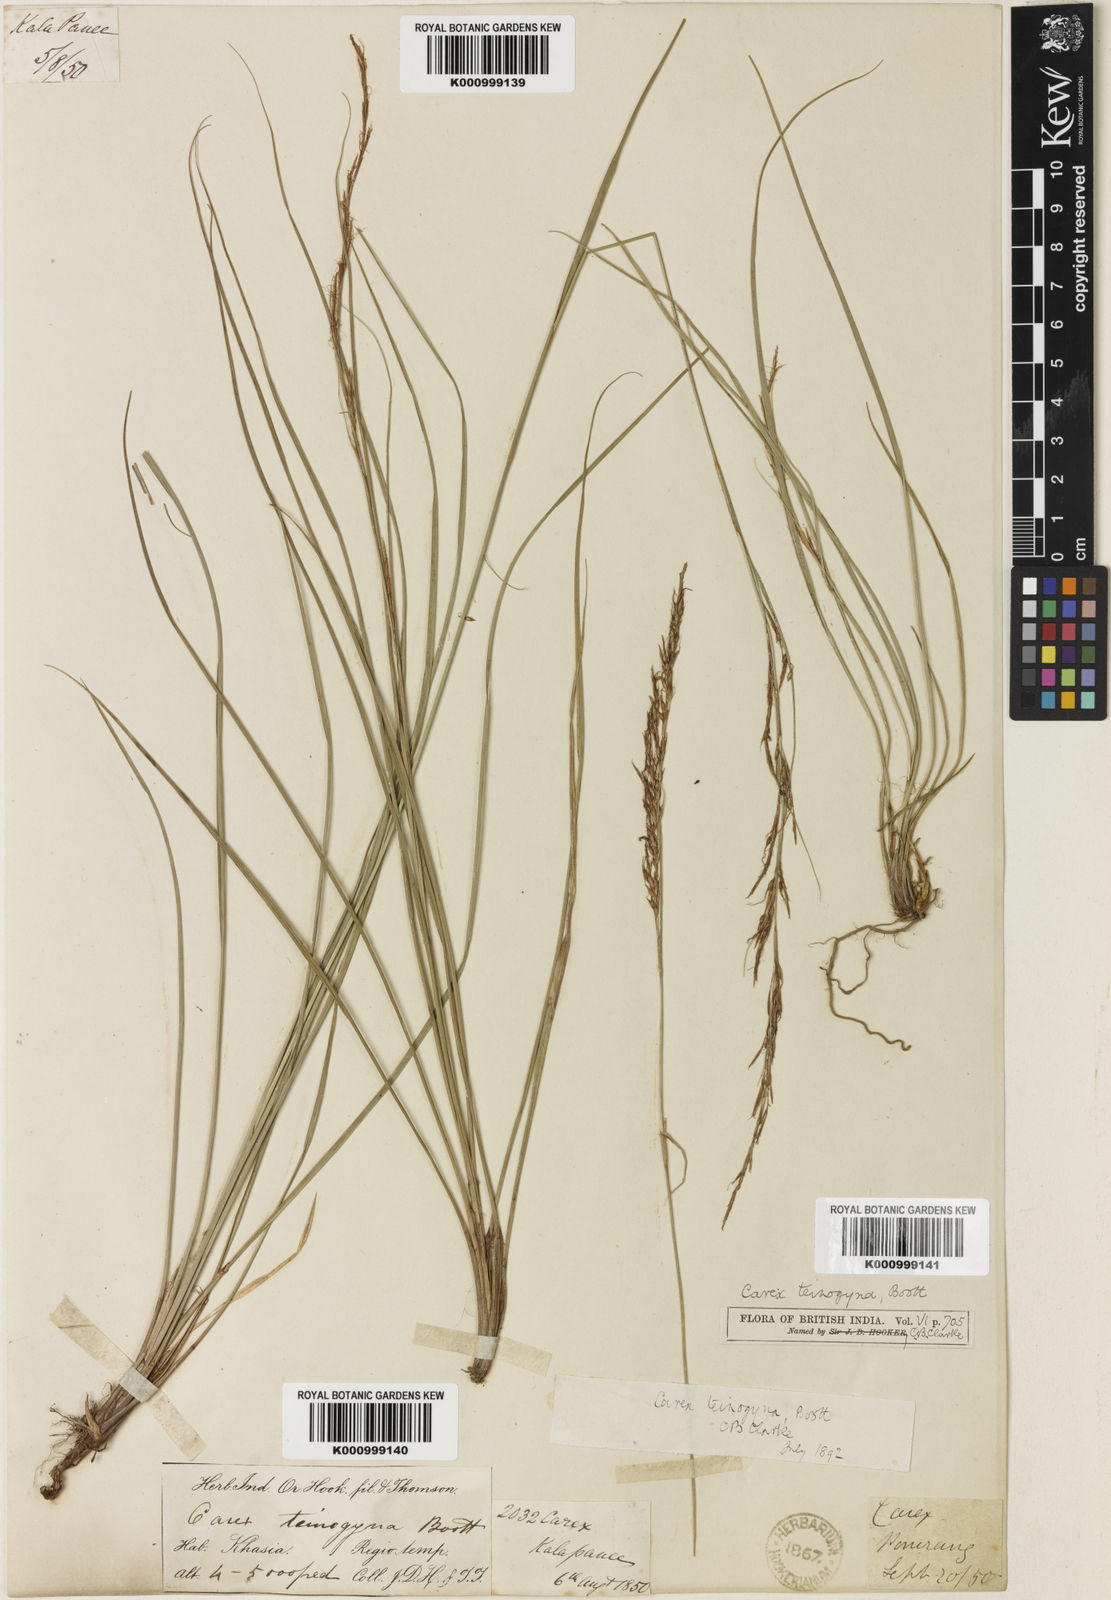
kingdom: Plantae
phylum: Tracheophyta
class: Liliopsida
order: Poales
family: Cyperaceae
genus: Carex
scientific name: Carex teinogyna
